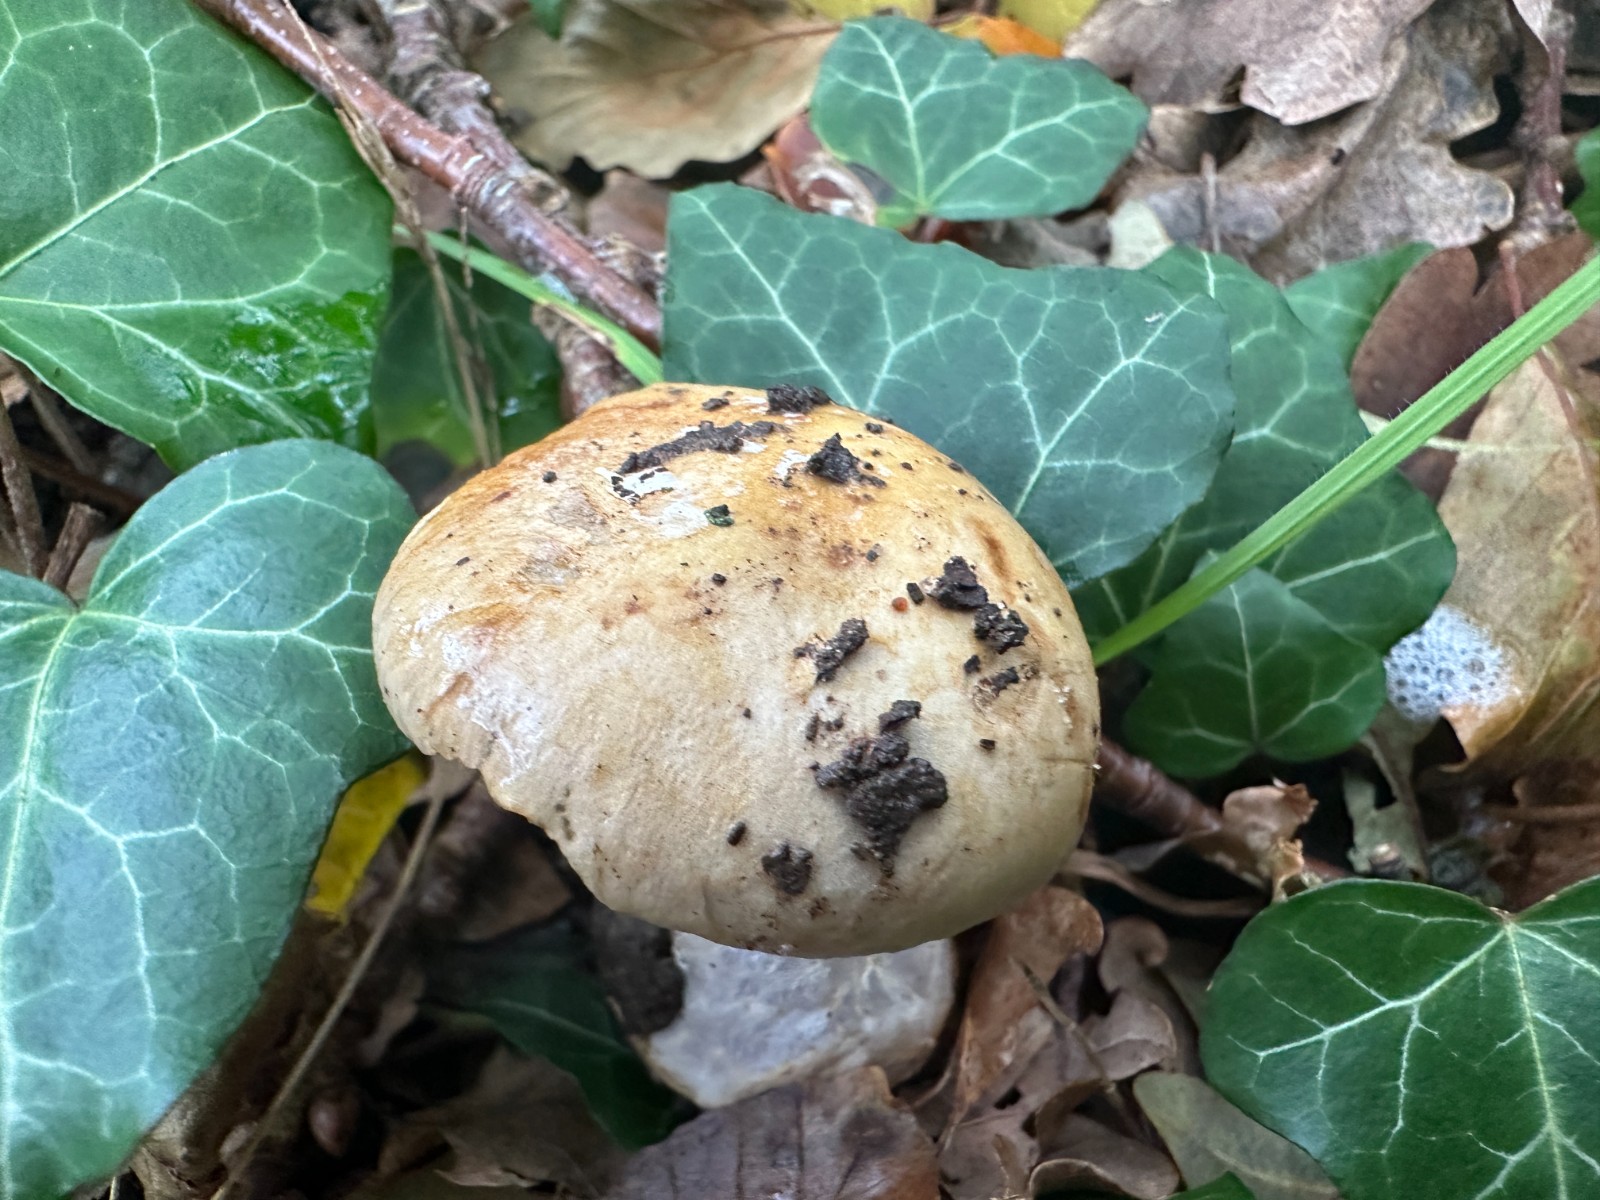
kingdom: Fungi
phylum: Basidiomycota
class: Agaricomycetes
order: Agaricales
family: Cortinariaceae
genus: Cortinarius
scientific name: Cortinarius anserinus
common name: bøge-slørhat
